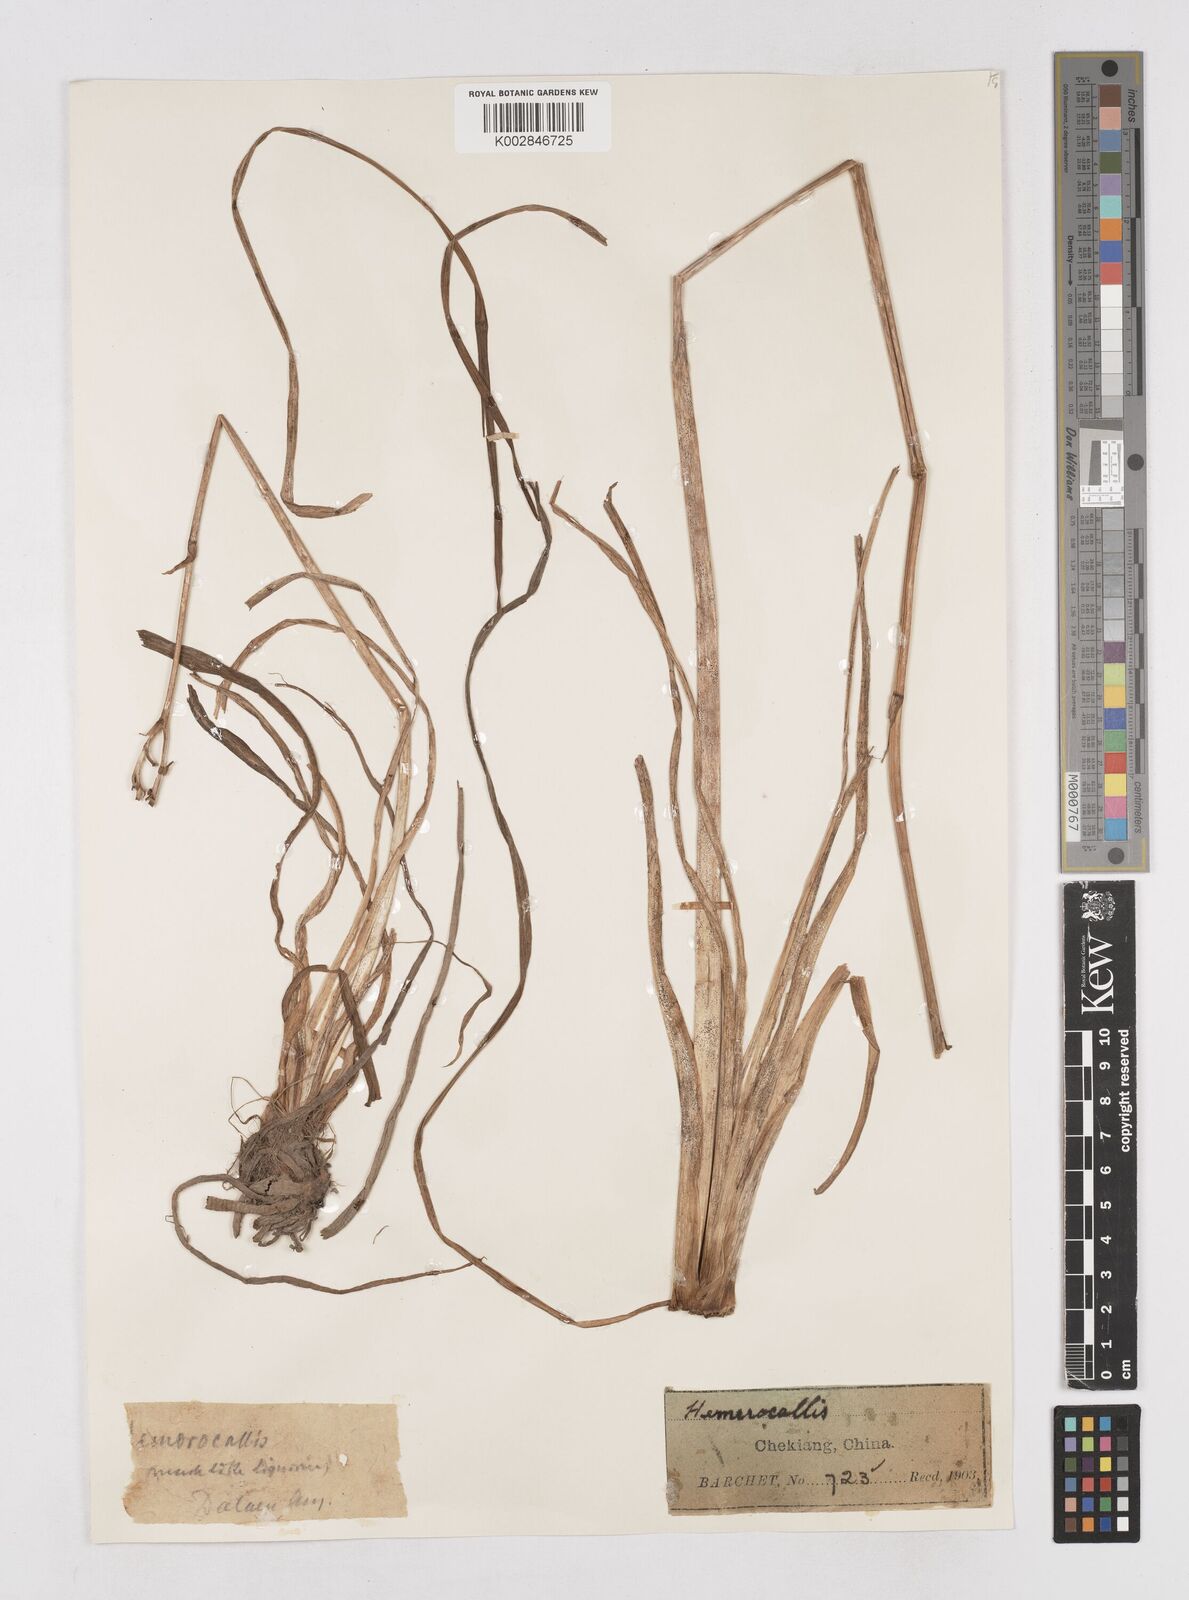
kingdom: Plantae
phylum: Tracheophyta
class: Liliopsida
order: Asparagales
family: Asphodelaceae
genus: Hemerocallis
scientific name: Hemerocallis
